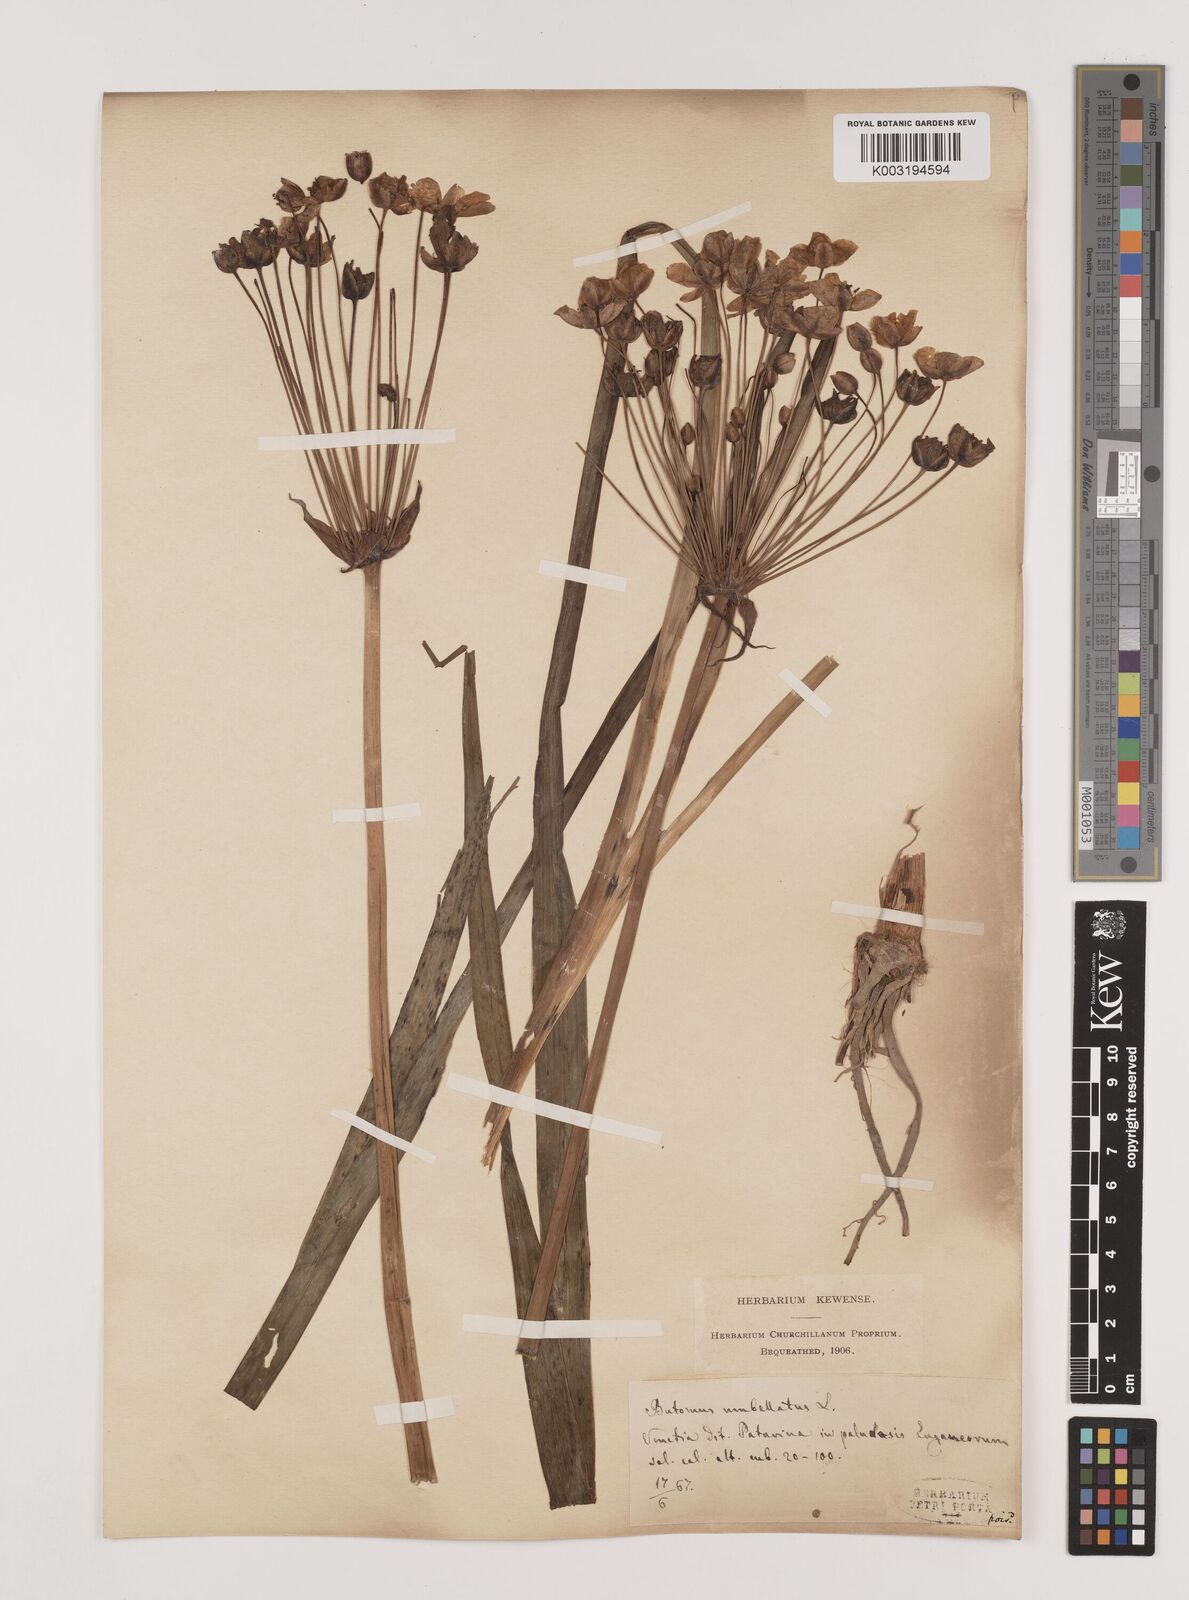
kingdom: Plantae
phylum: Tracheophyta
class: Liliopsida
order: Alismatales
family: Butomaceae
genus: Butomus
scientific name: Butomus umbellatus
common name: Flowering-rush
